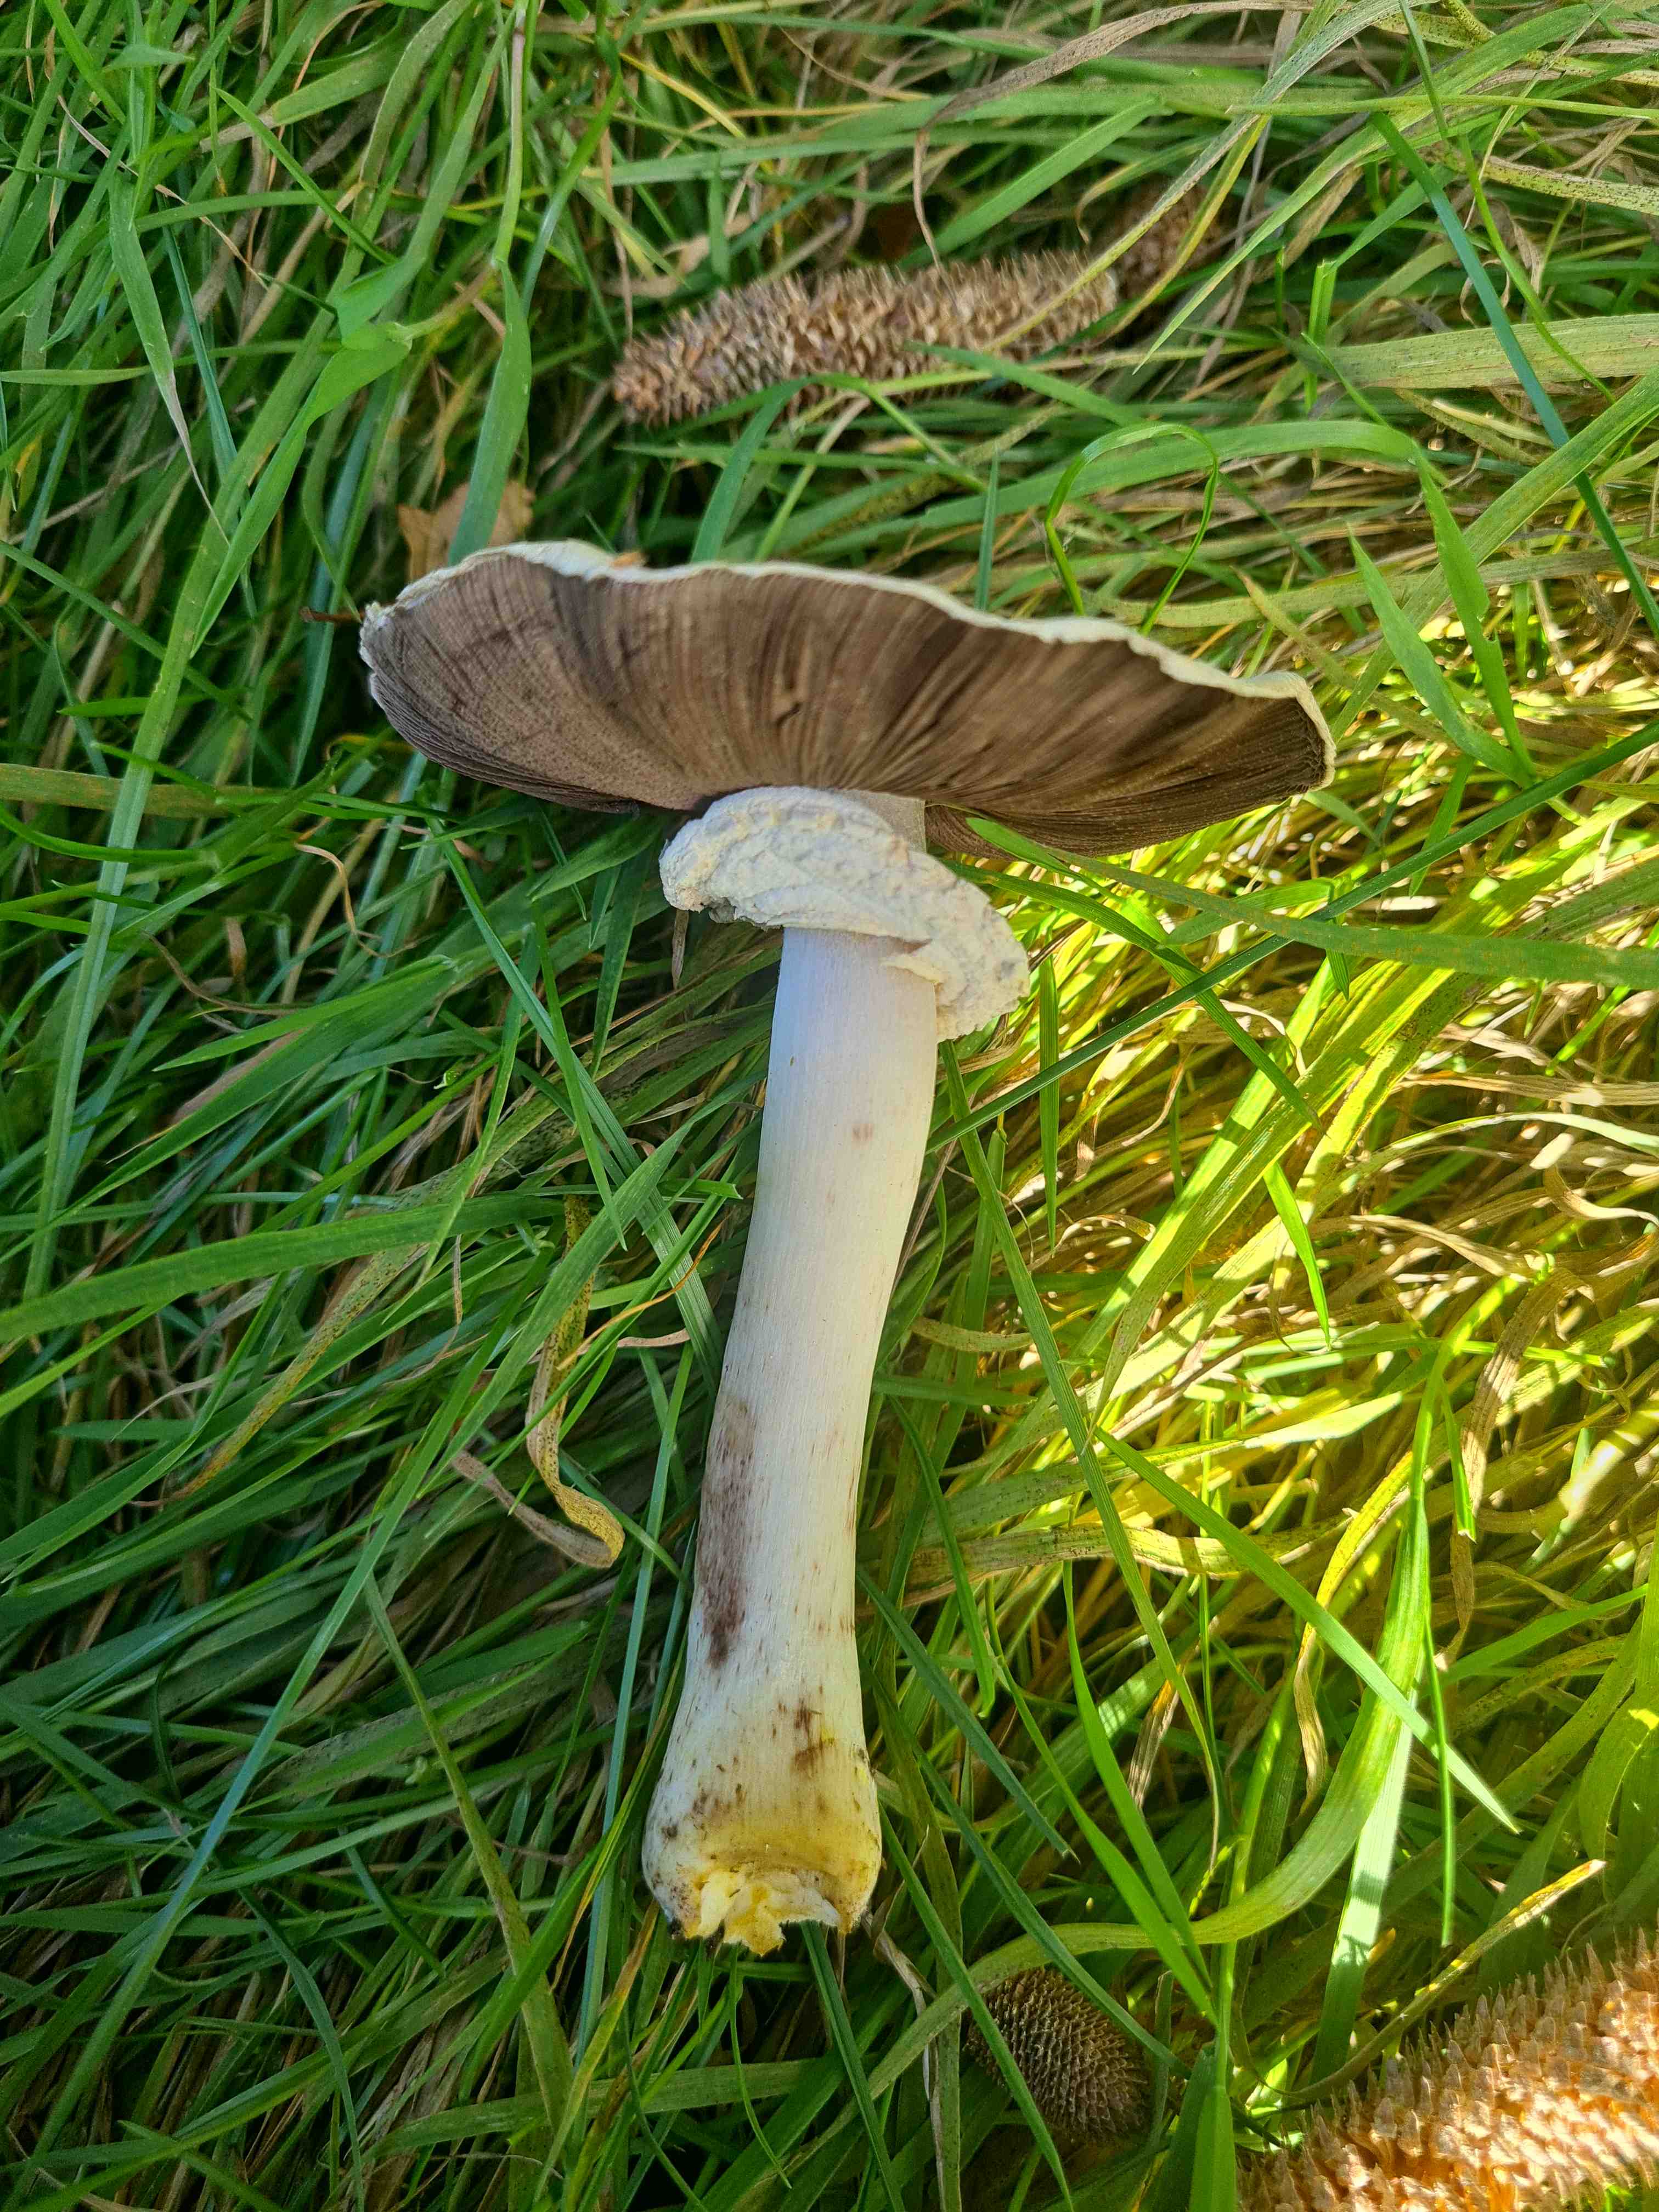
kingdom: Fungi
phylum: Basidiomycota
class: Agaricomycetes
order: Agaricales
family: Agaricaceae
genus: Agaricus
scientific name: Agaricus xanthodermus
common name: karbol-champignon
